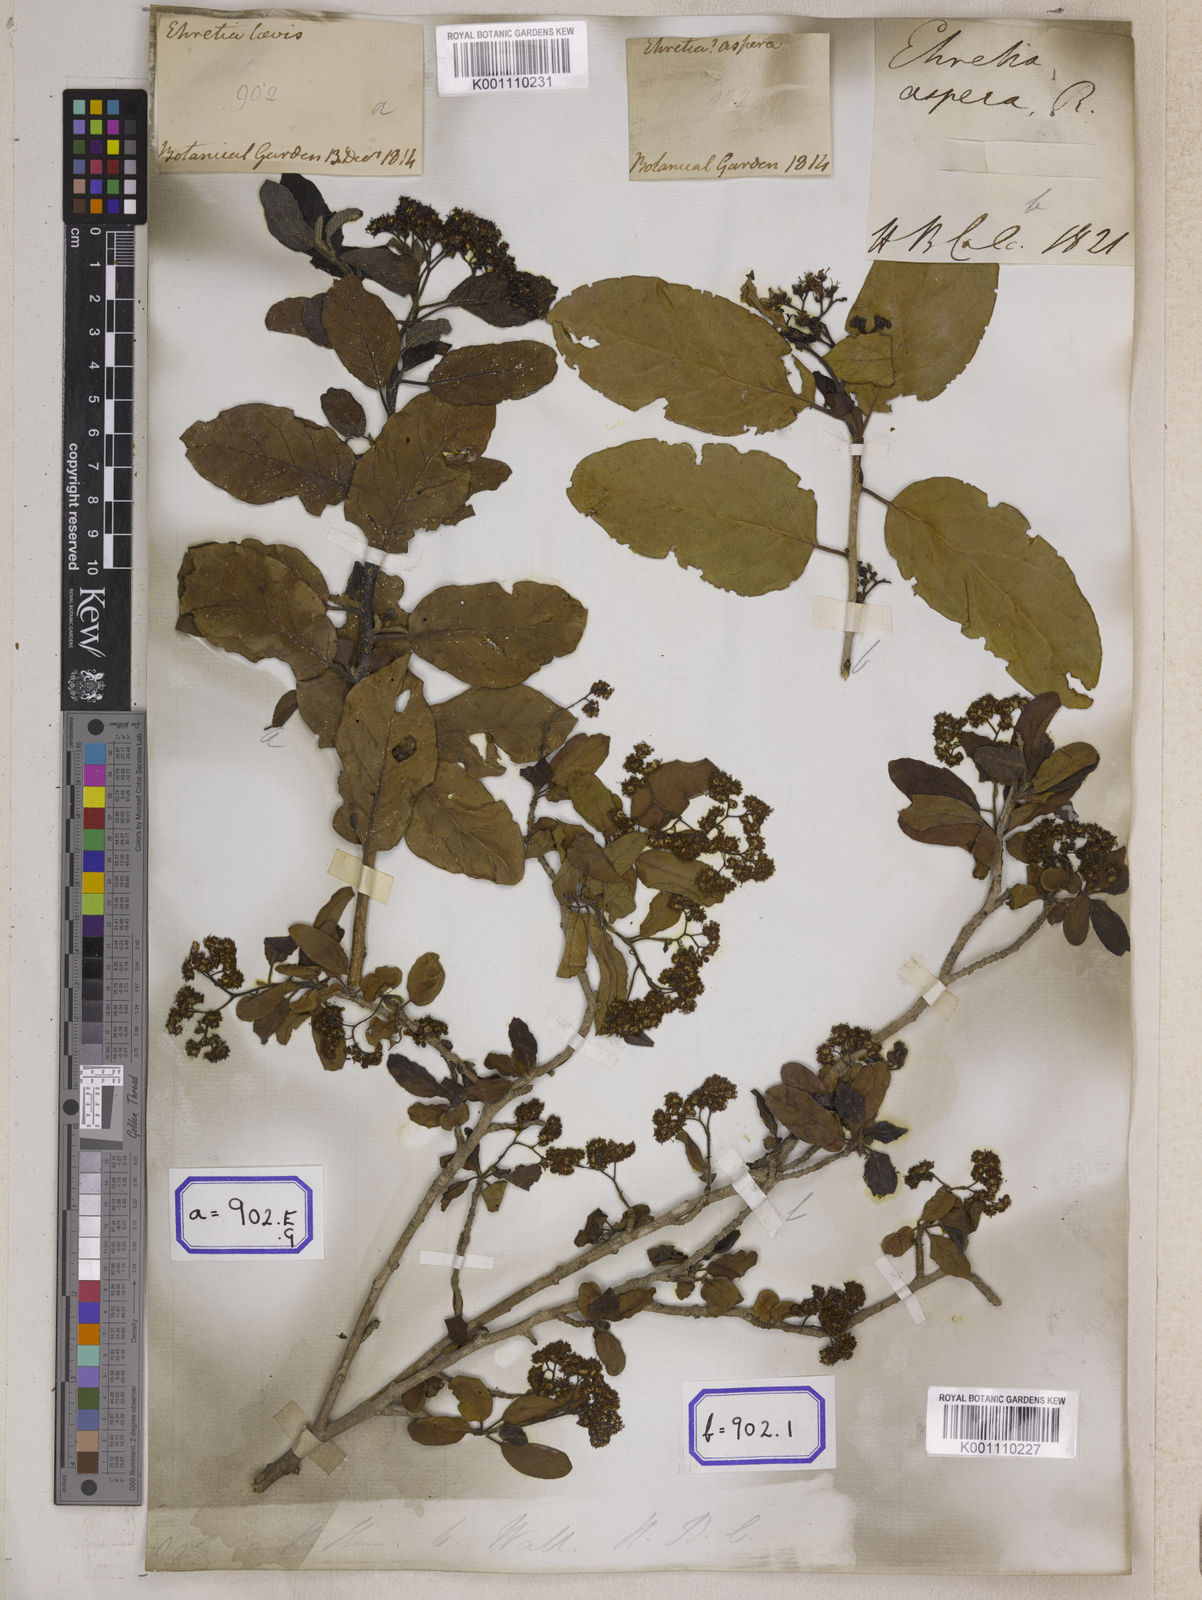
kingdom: Plantae
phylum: Tracheophyta
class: Magnoliopsida
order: Boraginales
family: Ehretiaceae
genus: Ehretia
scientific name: Ehretia aspera
